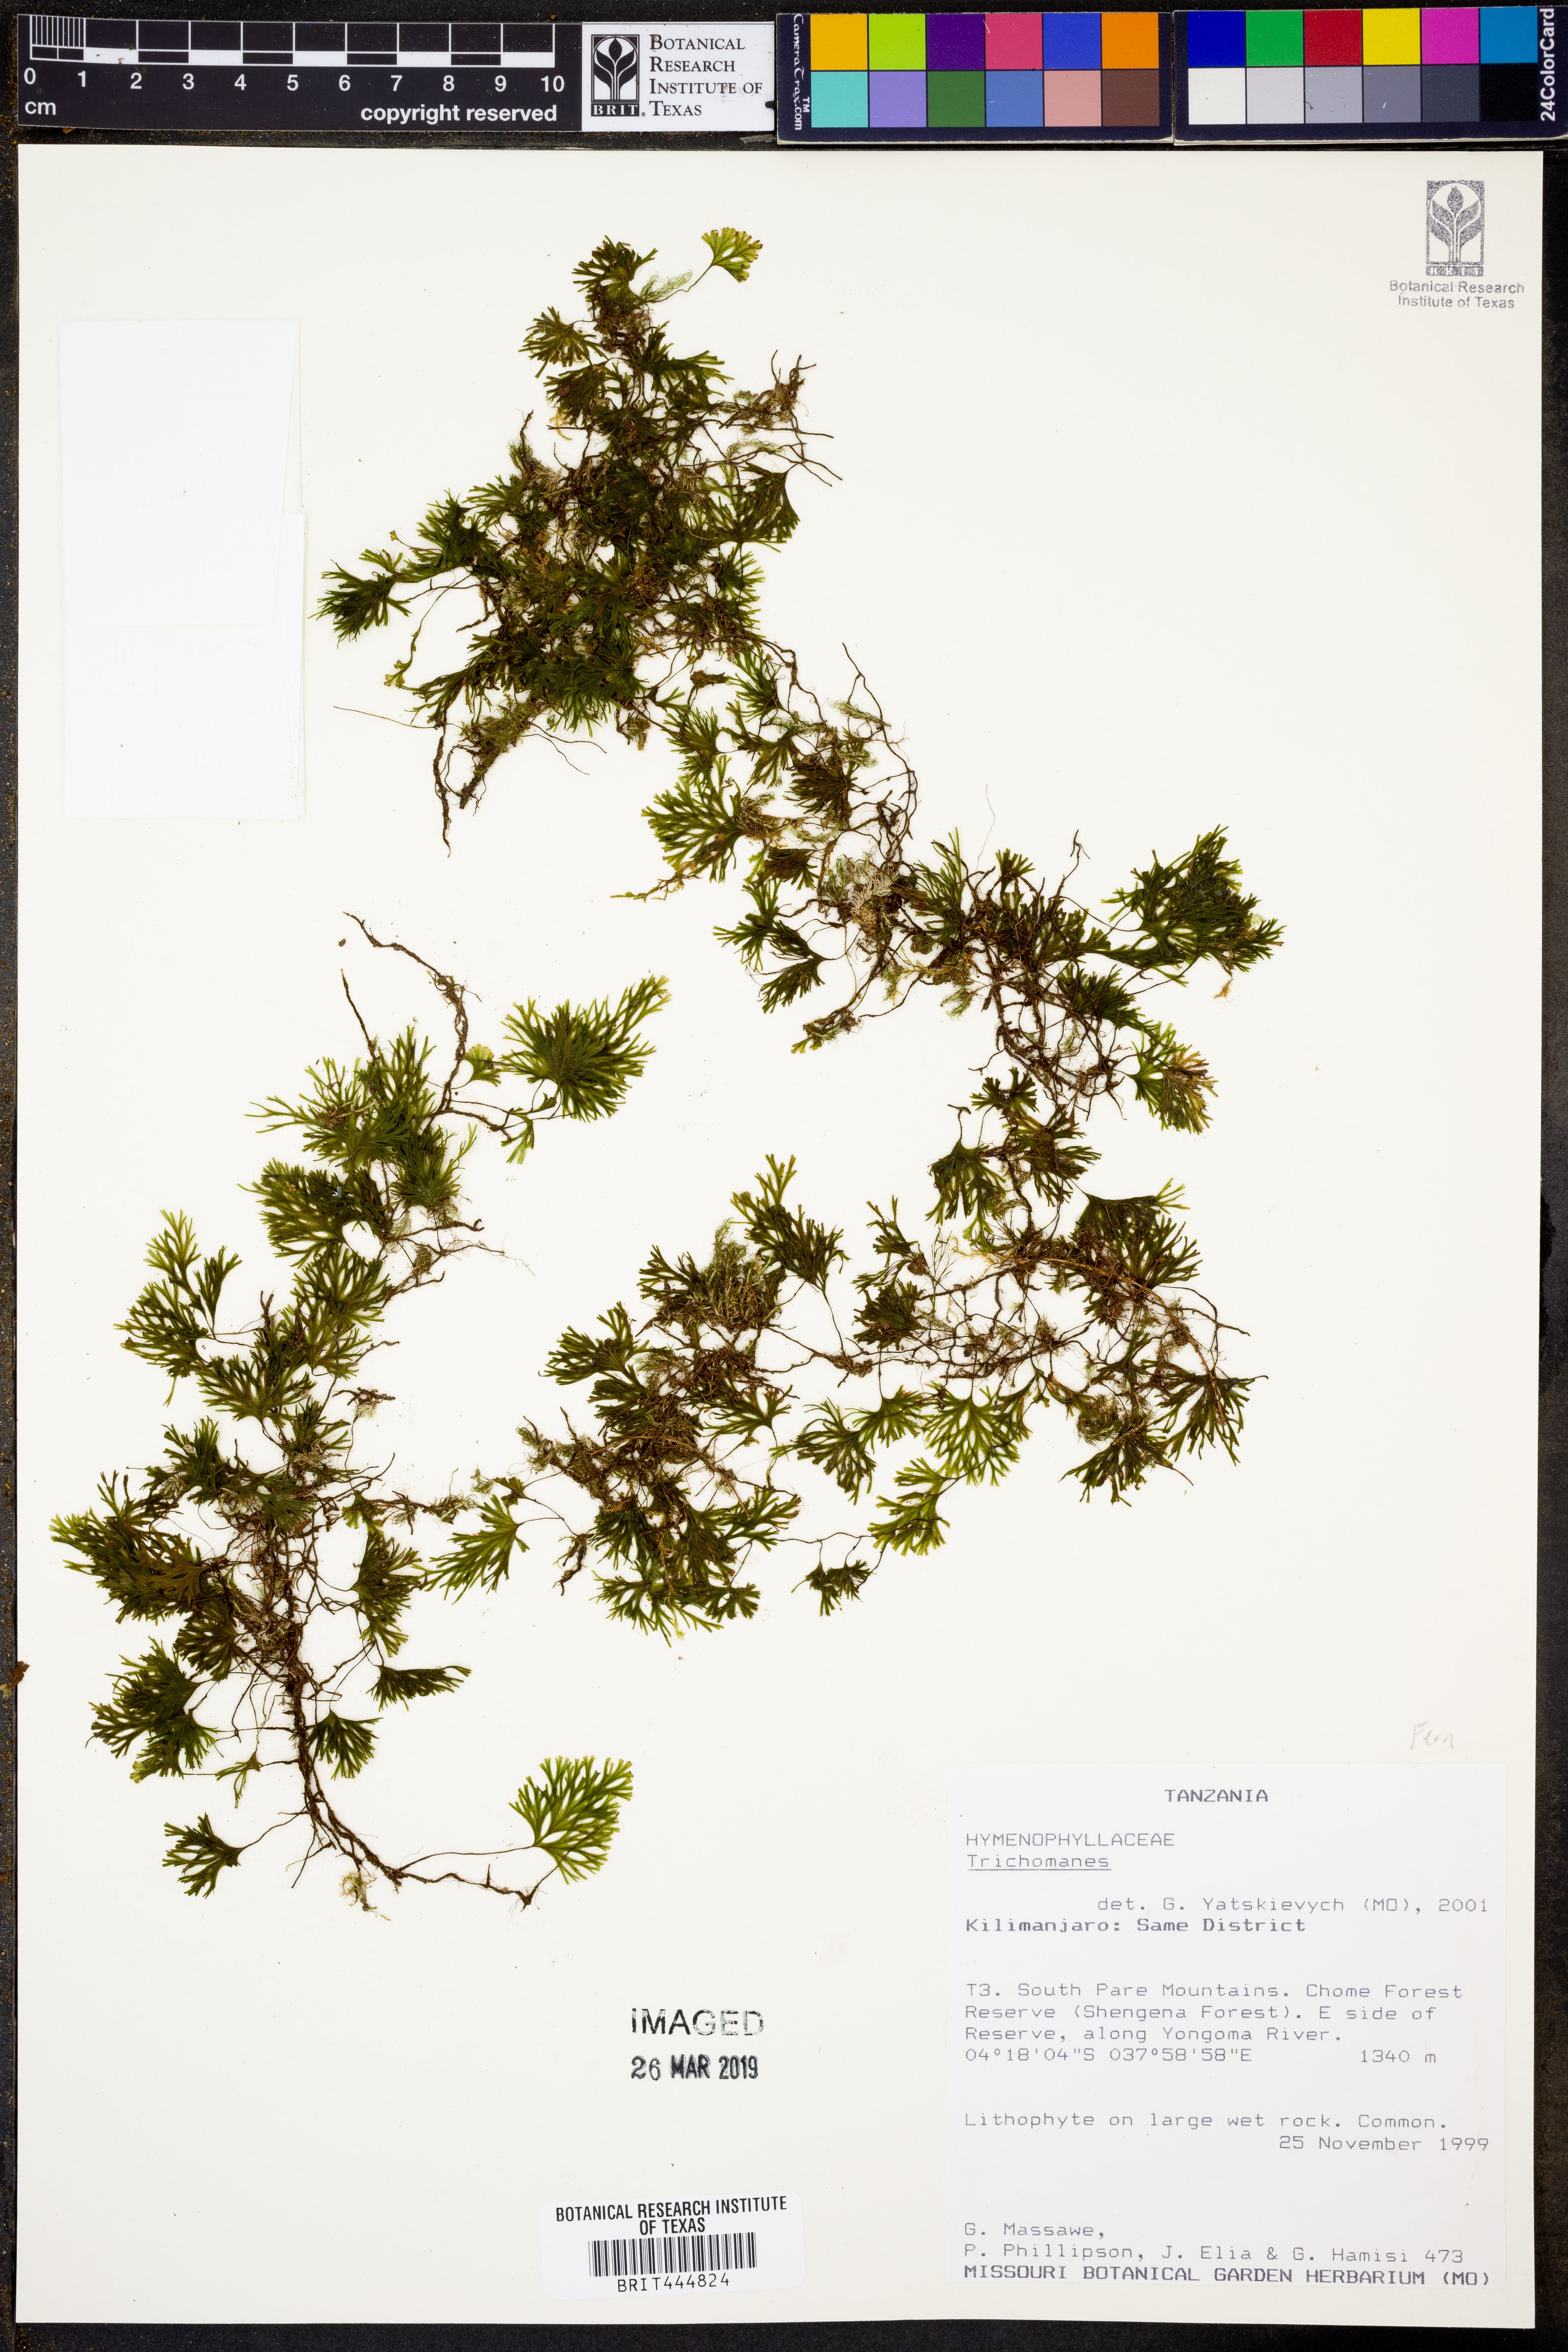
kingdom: Plantae
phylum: Tracheophyta
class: Polypodiopsida
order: Hymenophyllales
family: Hymenophyllaceae
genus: Trichomanes
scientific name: Trichomanes
